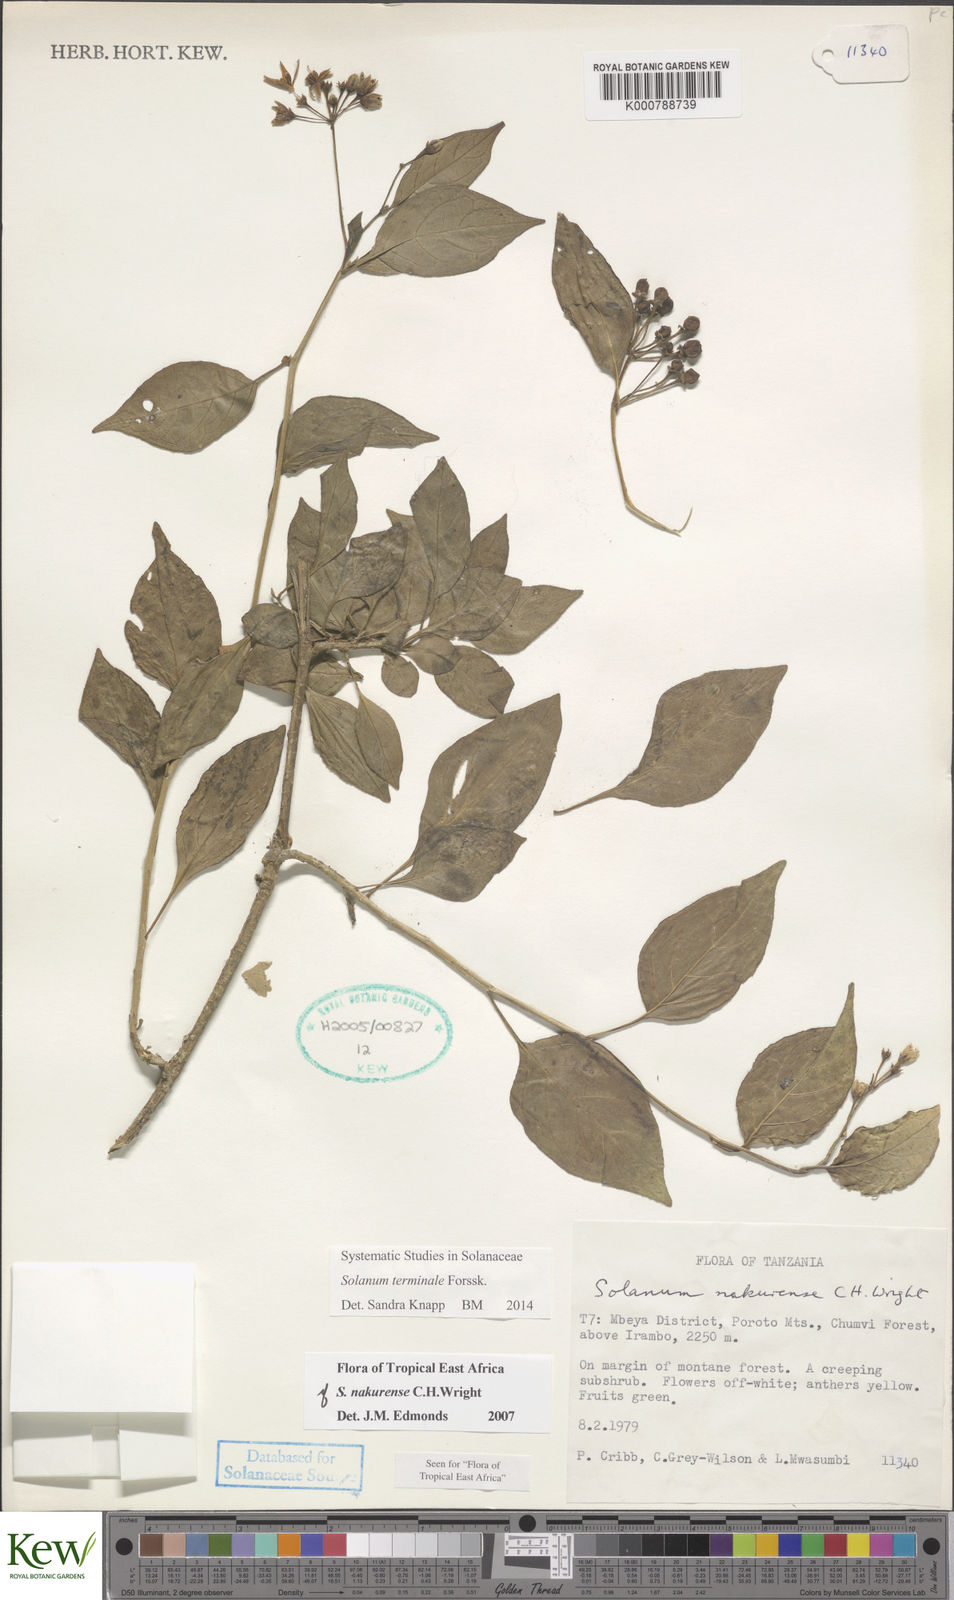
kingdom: Plantae
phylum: Tracheophyta
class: Magnoliopsida
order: Solanales
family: Solanaceae
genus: Solanum
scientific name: Solanum terminale
